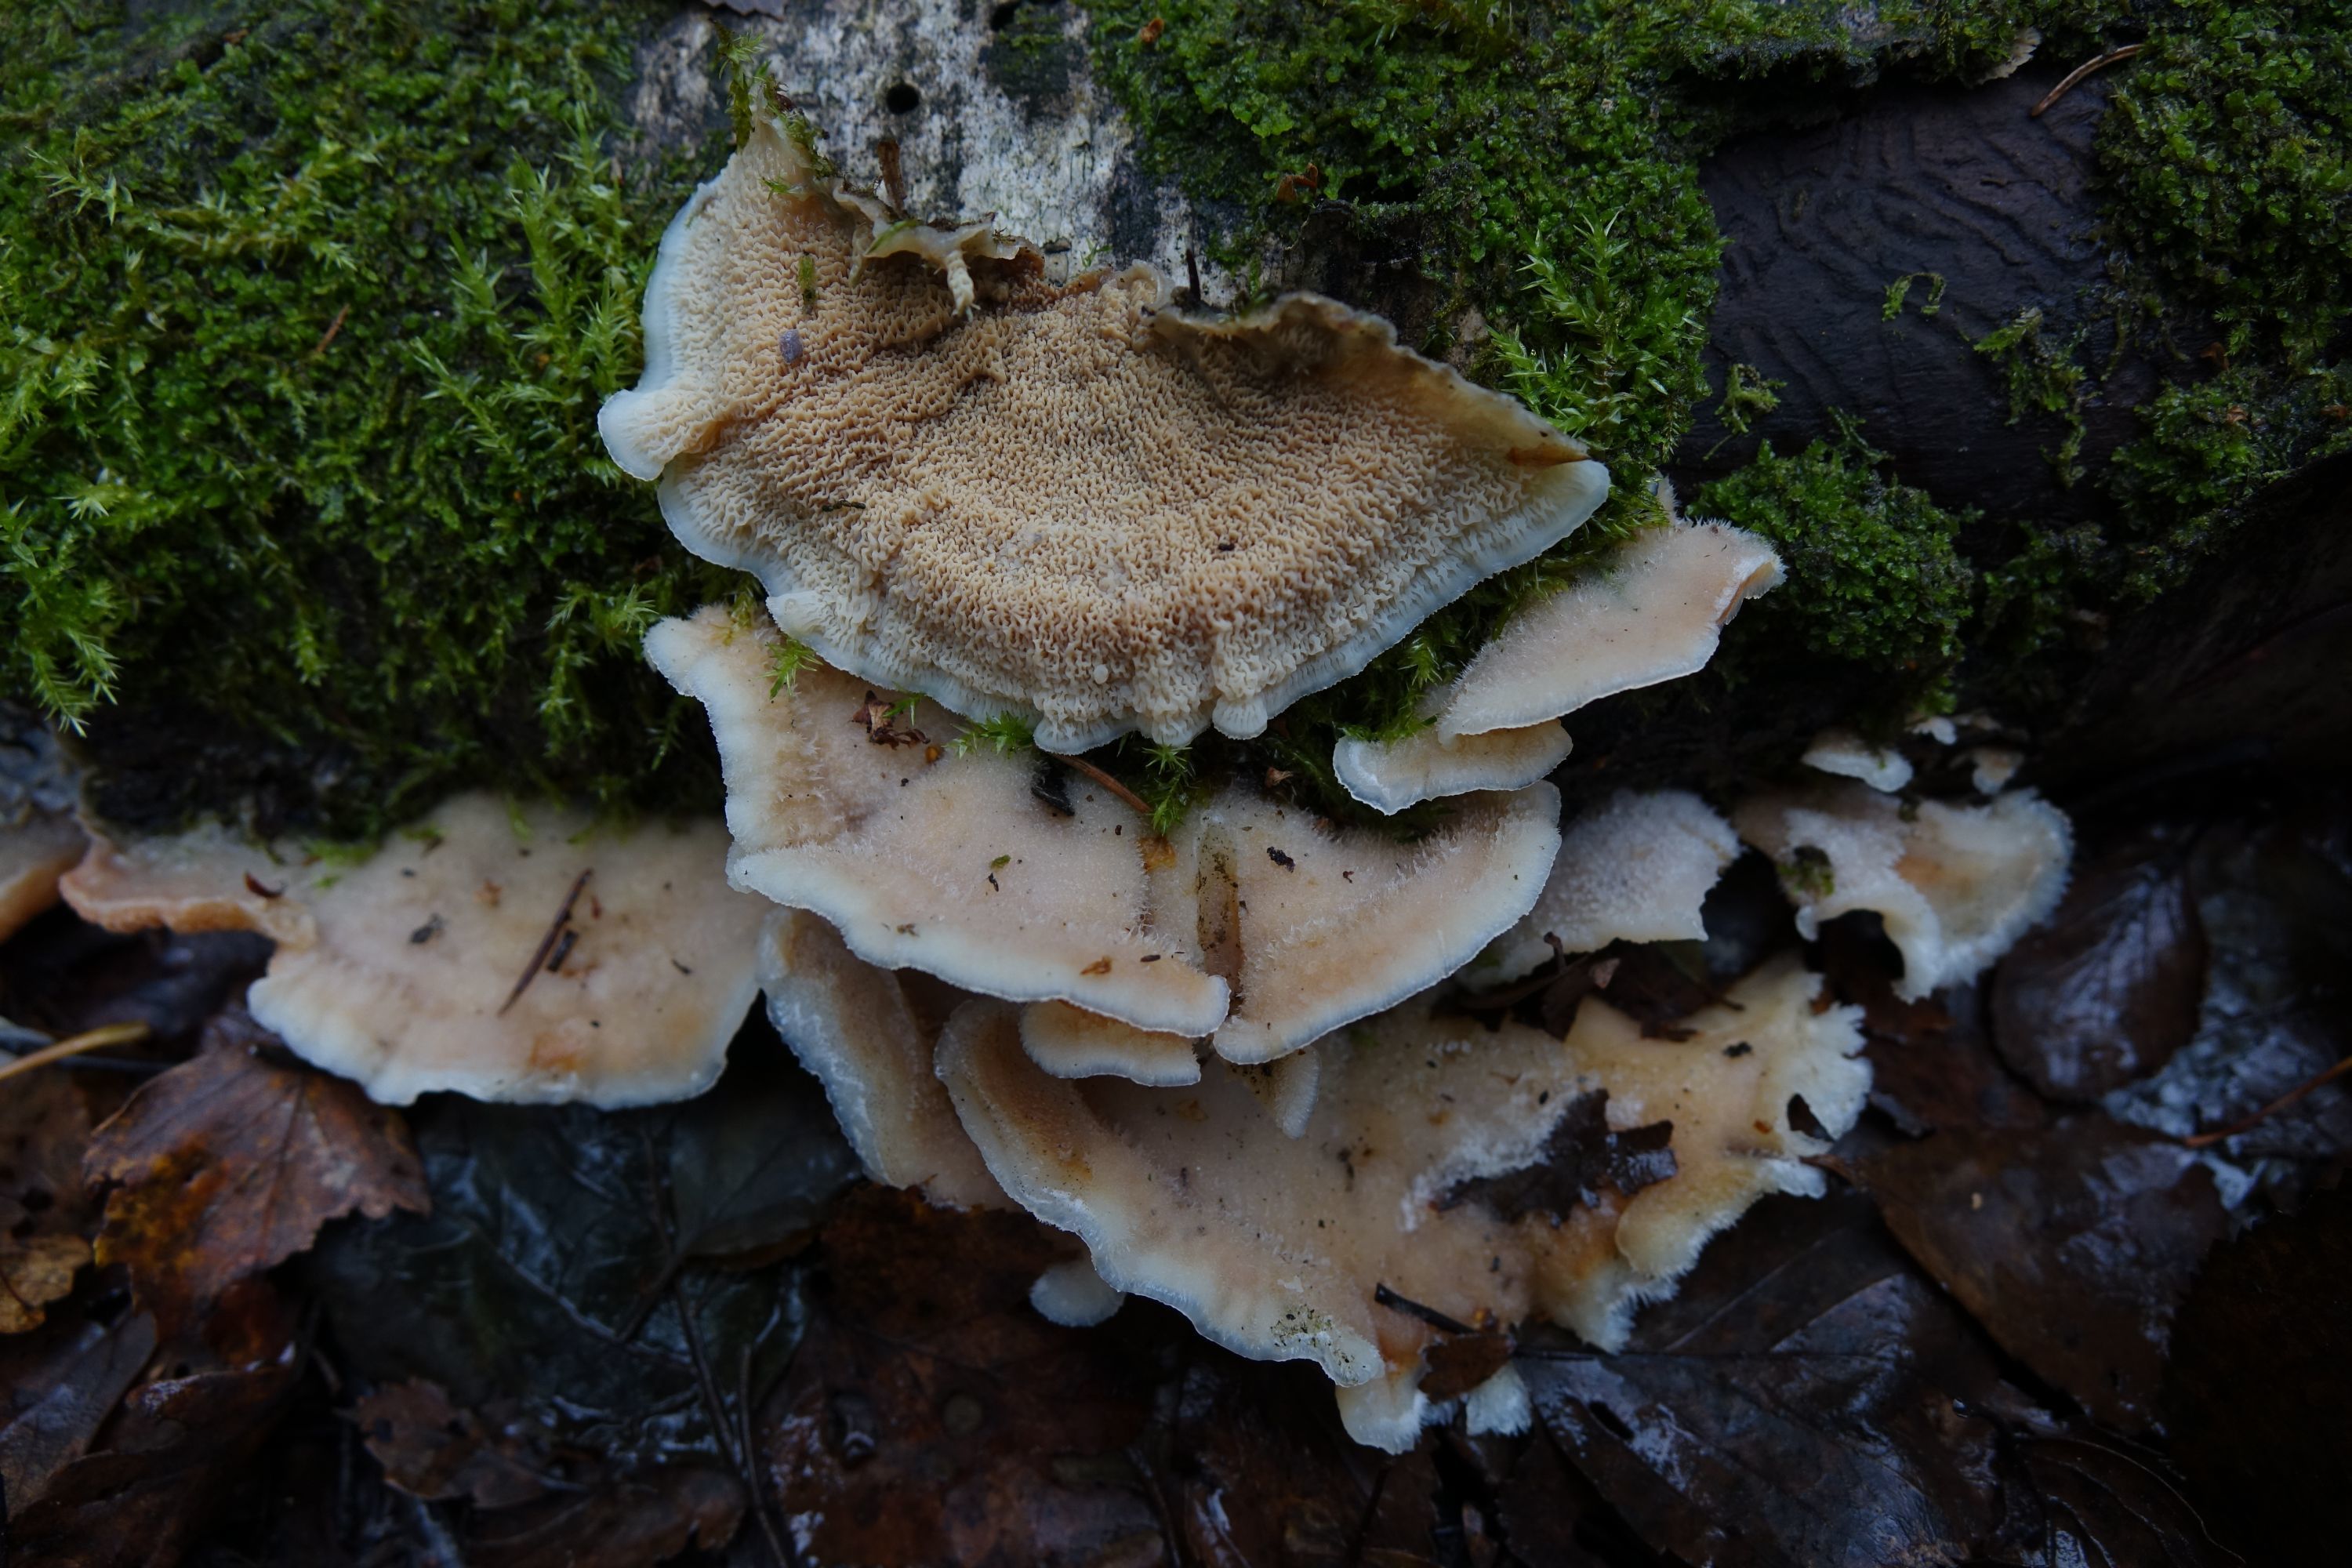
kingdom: Fungi
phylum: Basidiomycota
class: Agaricomycetes
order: Polyporales
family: Meruliaceae
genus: Phlebia
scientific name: Phlebia tremellosa
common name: Jelly rot
